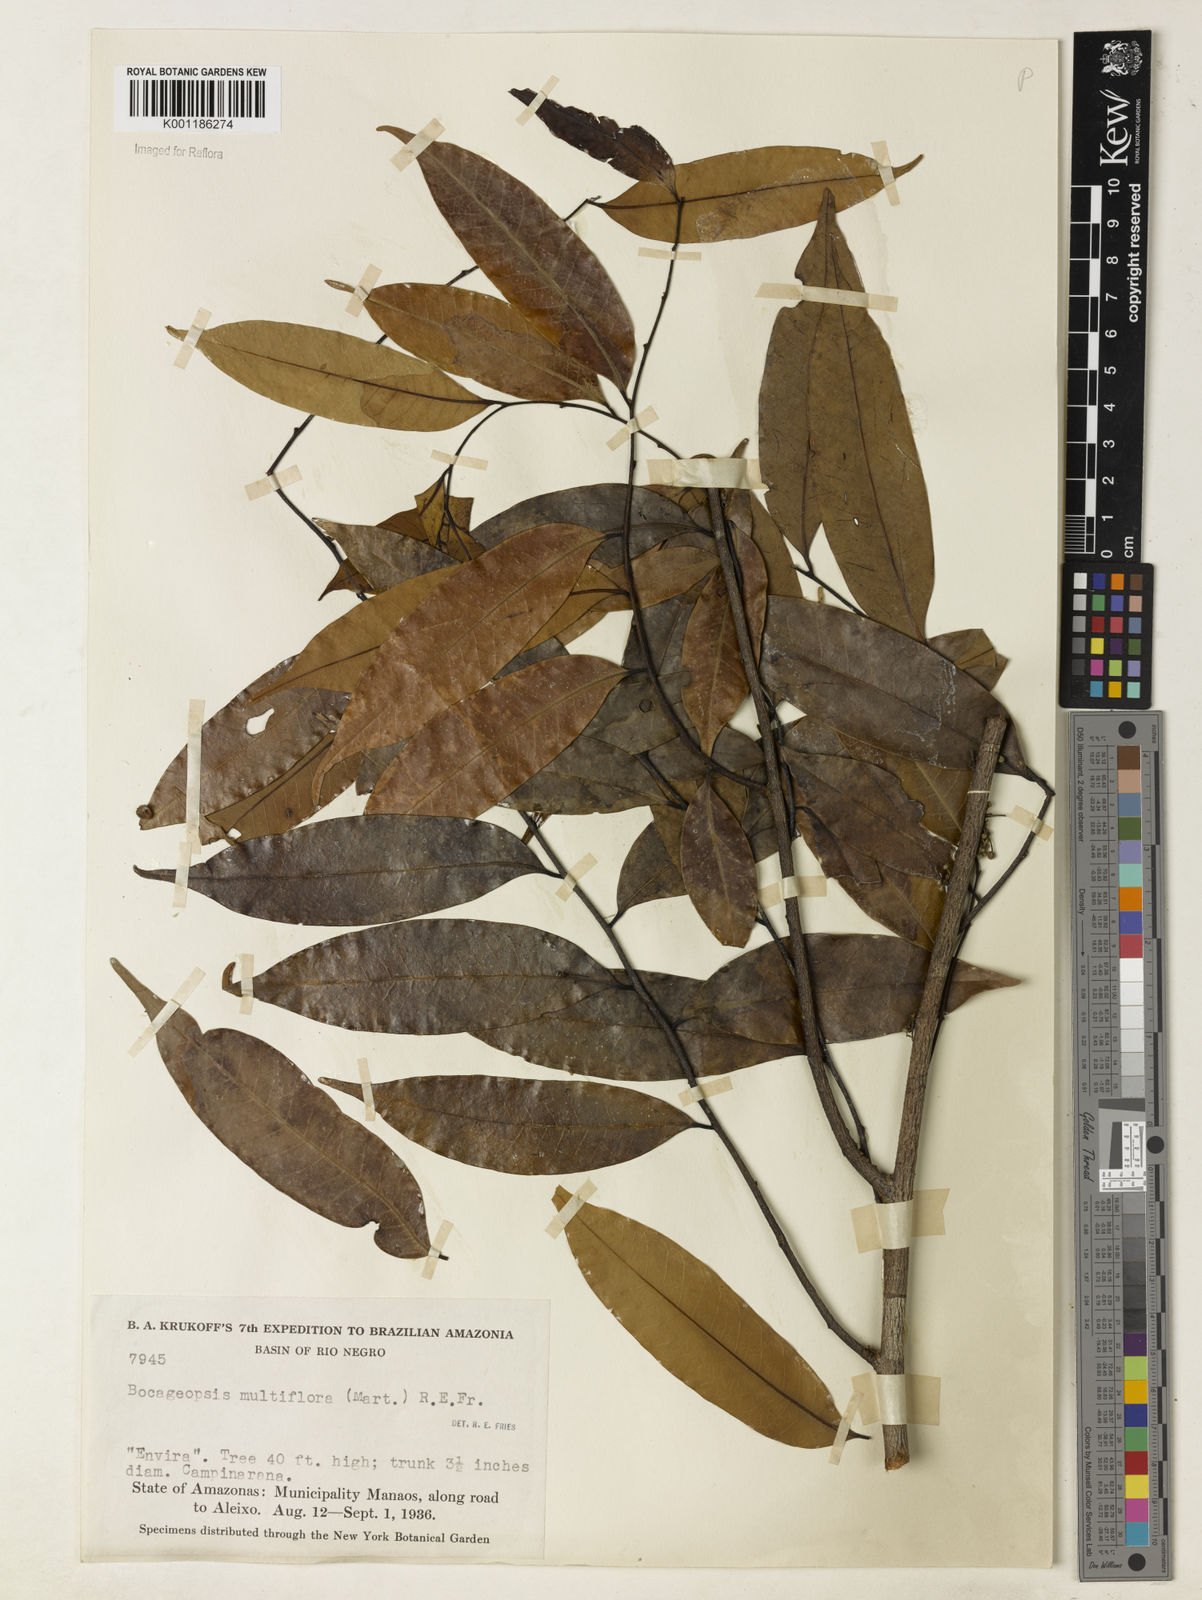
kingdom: Plantae
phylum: Tracheophyta
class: Magnoliopsida
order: Magnoliales
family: Annonaceae
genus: Bocageopsis
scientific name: Bocageopsis multiflora
